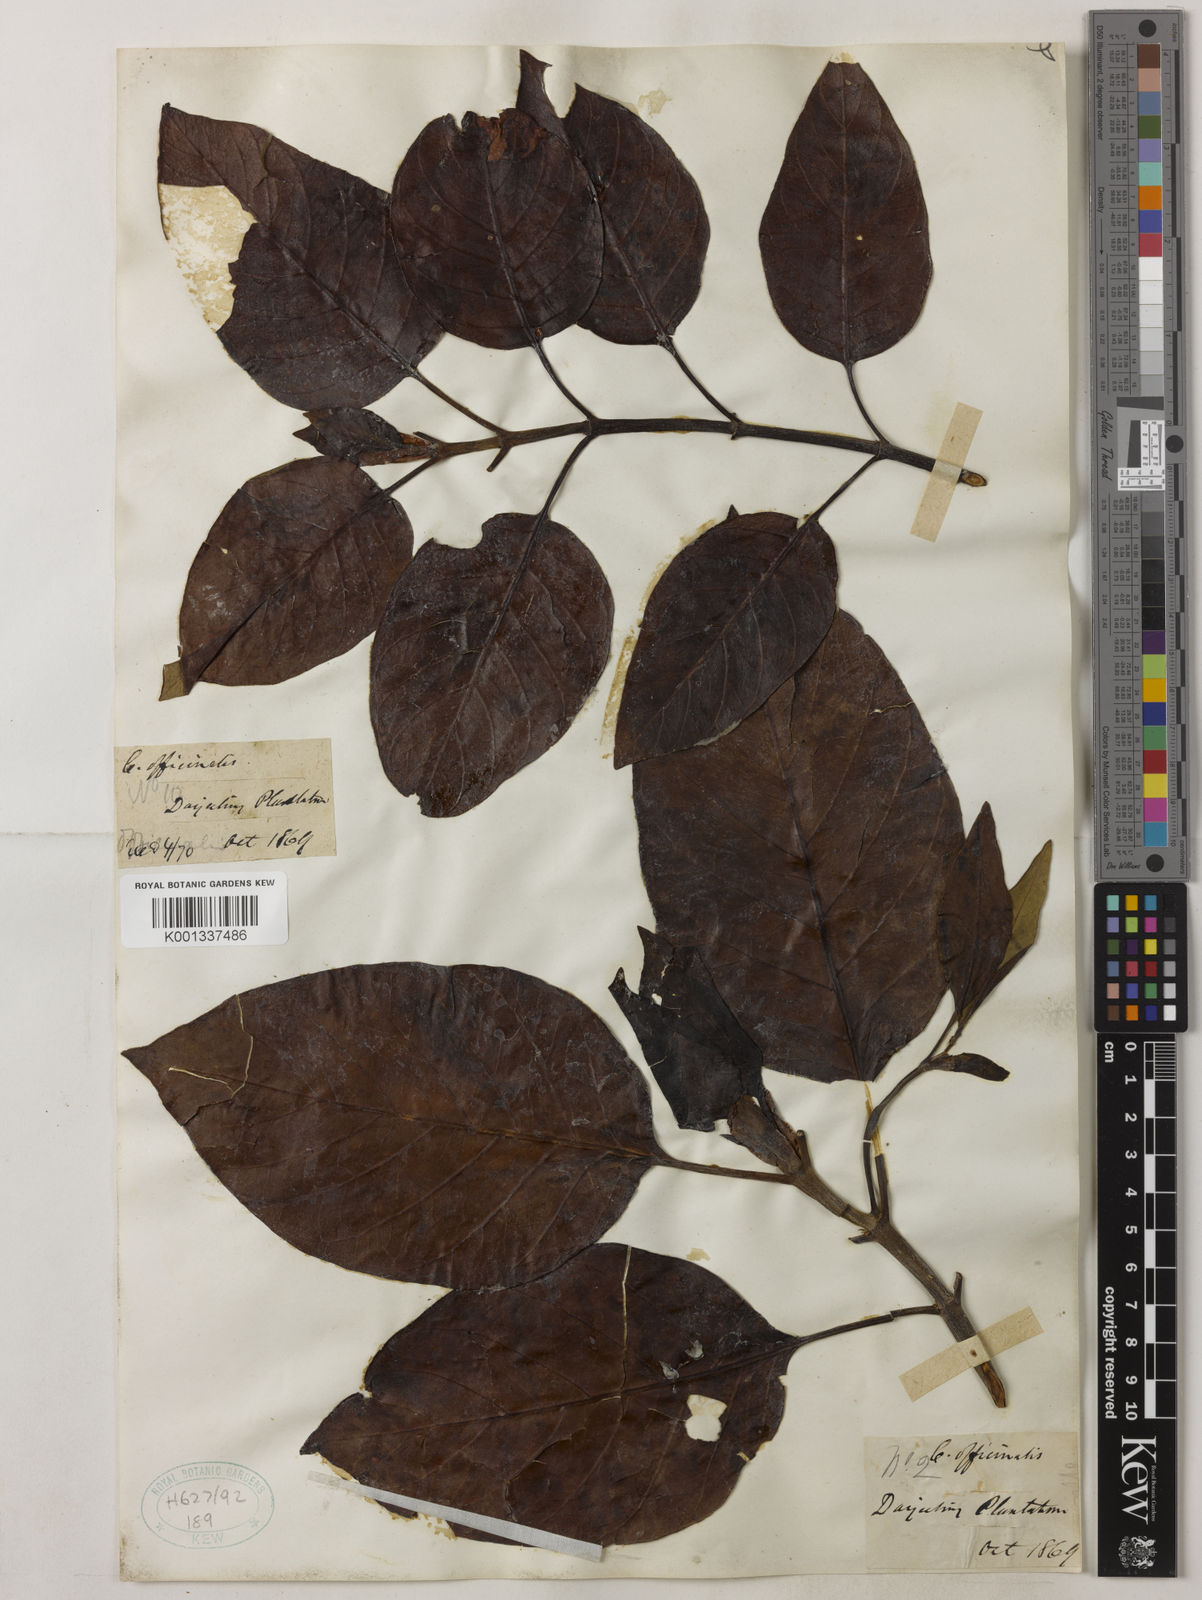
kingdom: Plantae
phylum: Tracheophyta
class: Magnoliopsida
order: Gentianales
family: Rubiaceae
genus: Cinchona
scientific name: Cinchona officinalis
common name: Lojabark
